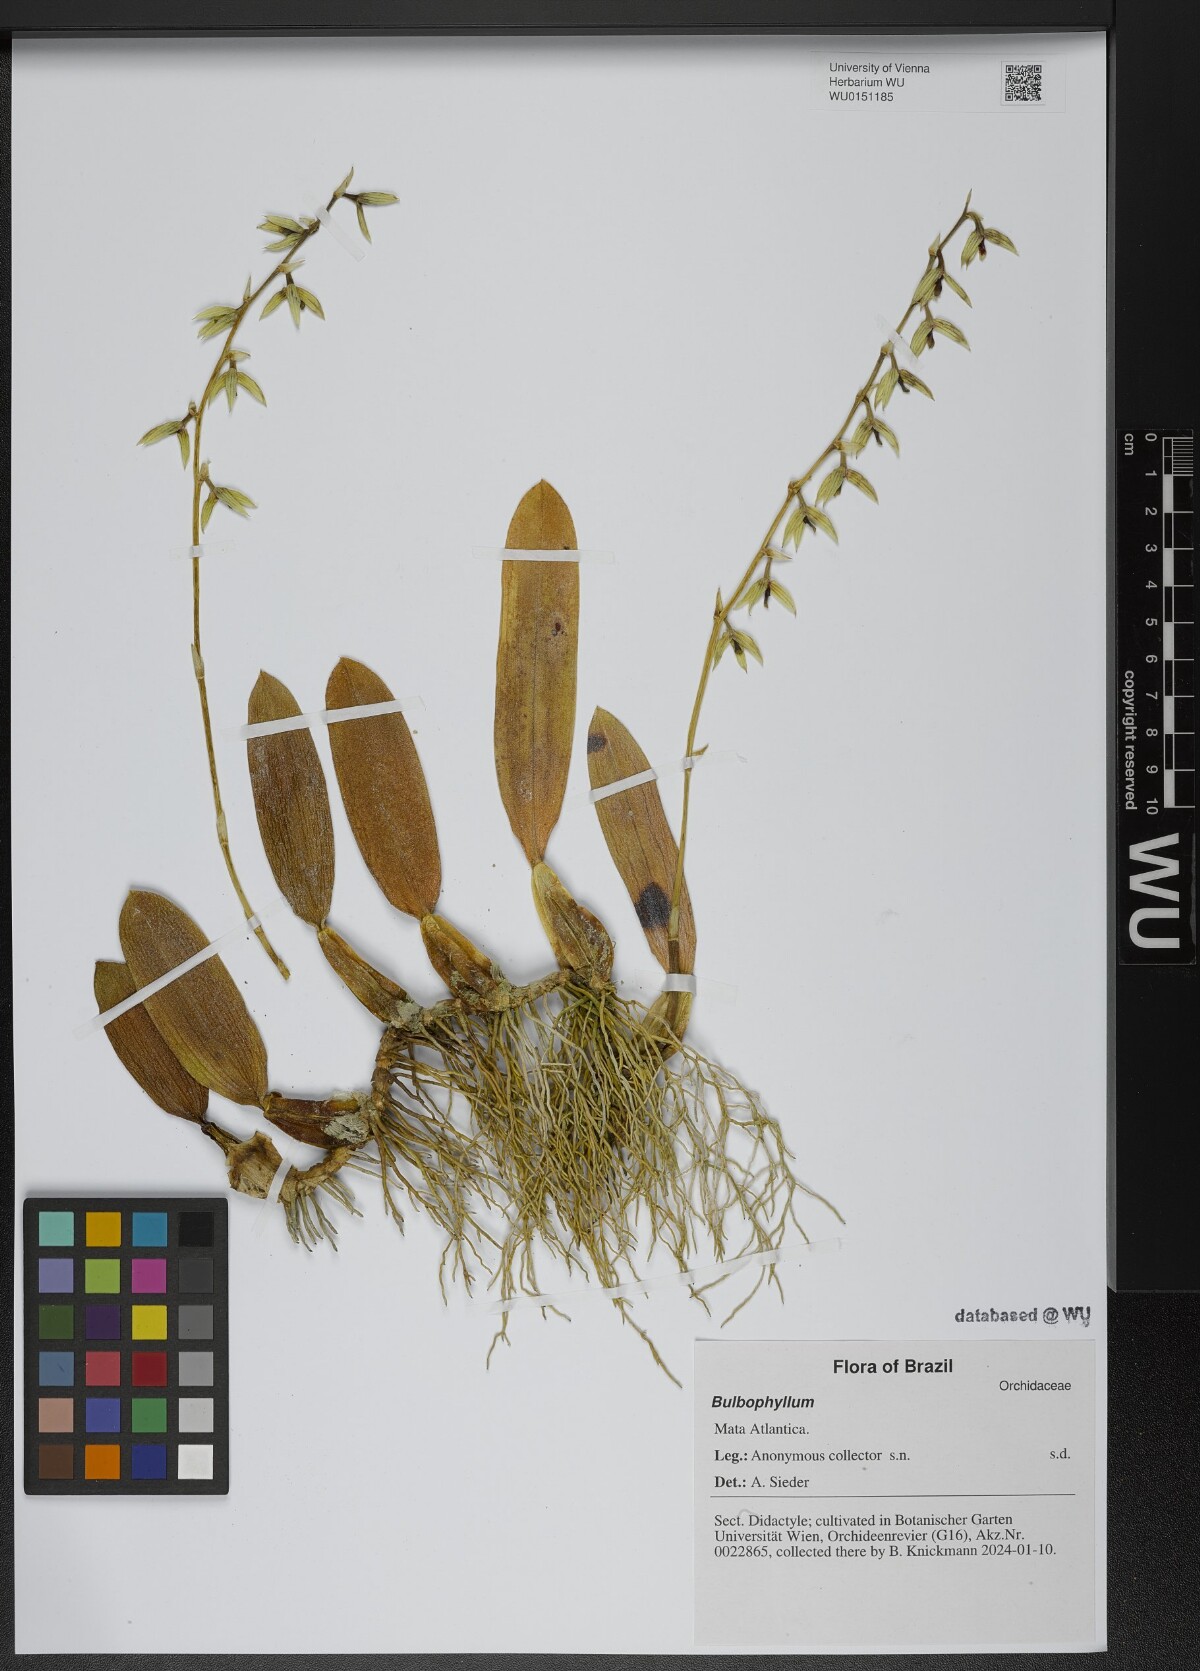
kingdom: Plantae
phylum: Tracheophyta
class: Liliopsida
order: Asparagales
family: Orchidaceae
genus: Bulbophyllum
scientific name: Bulbophyllum
